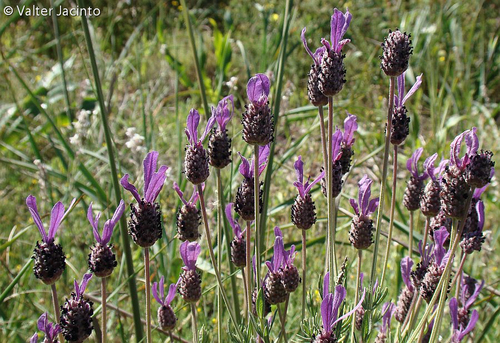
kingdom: Plantae
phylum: Tracheophyta
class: Magnoliopsida
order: Lamiales
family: Lamiaceae
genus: Lavandula
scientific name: Lavandula pedunculata
